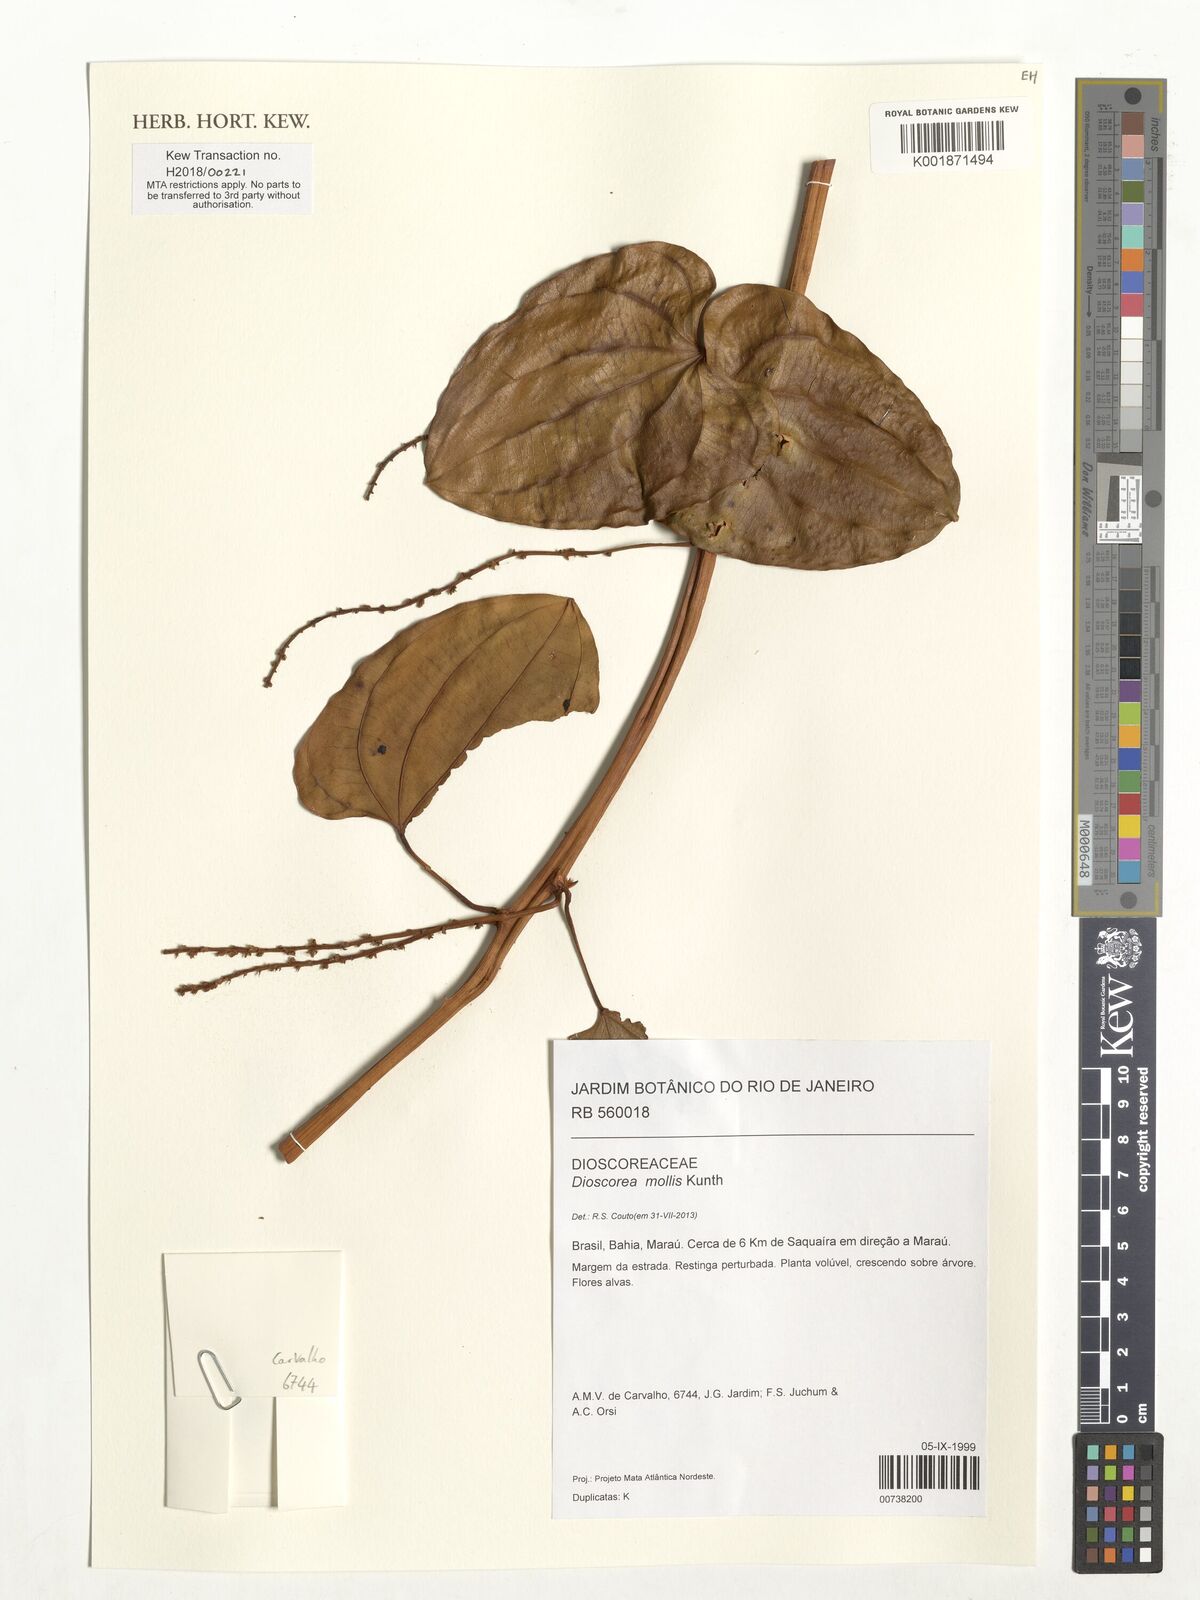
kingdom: Plantae
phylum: Tracheophyta
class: Liliopsida
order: Dioscoreales
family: Dioscoreaceae
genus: Dioscorea
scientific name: Dioscorea mollis
